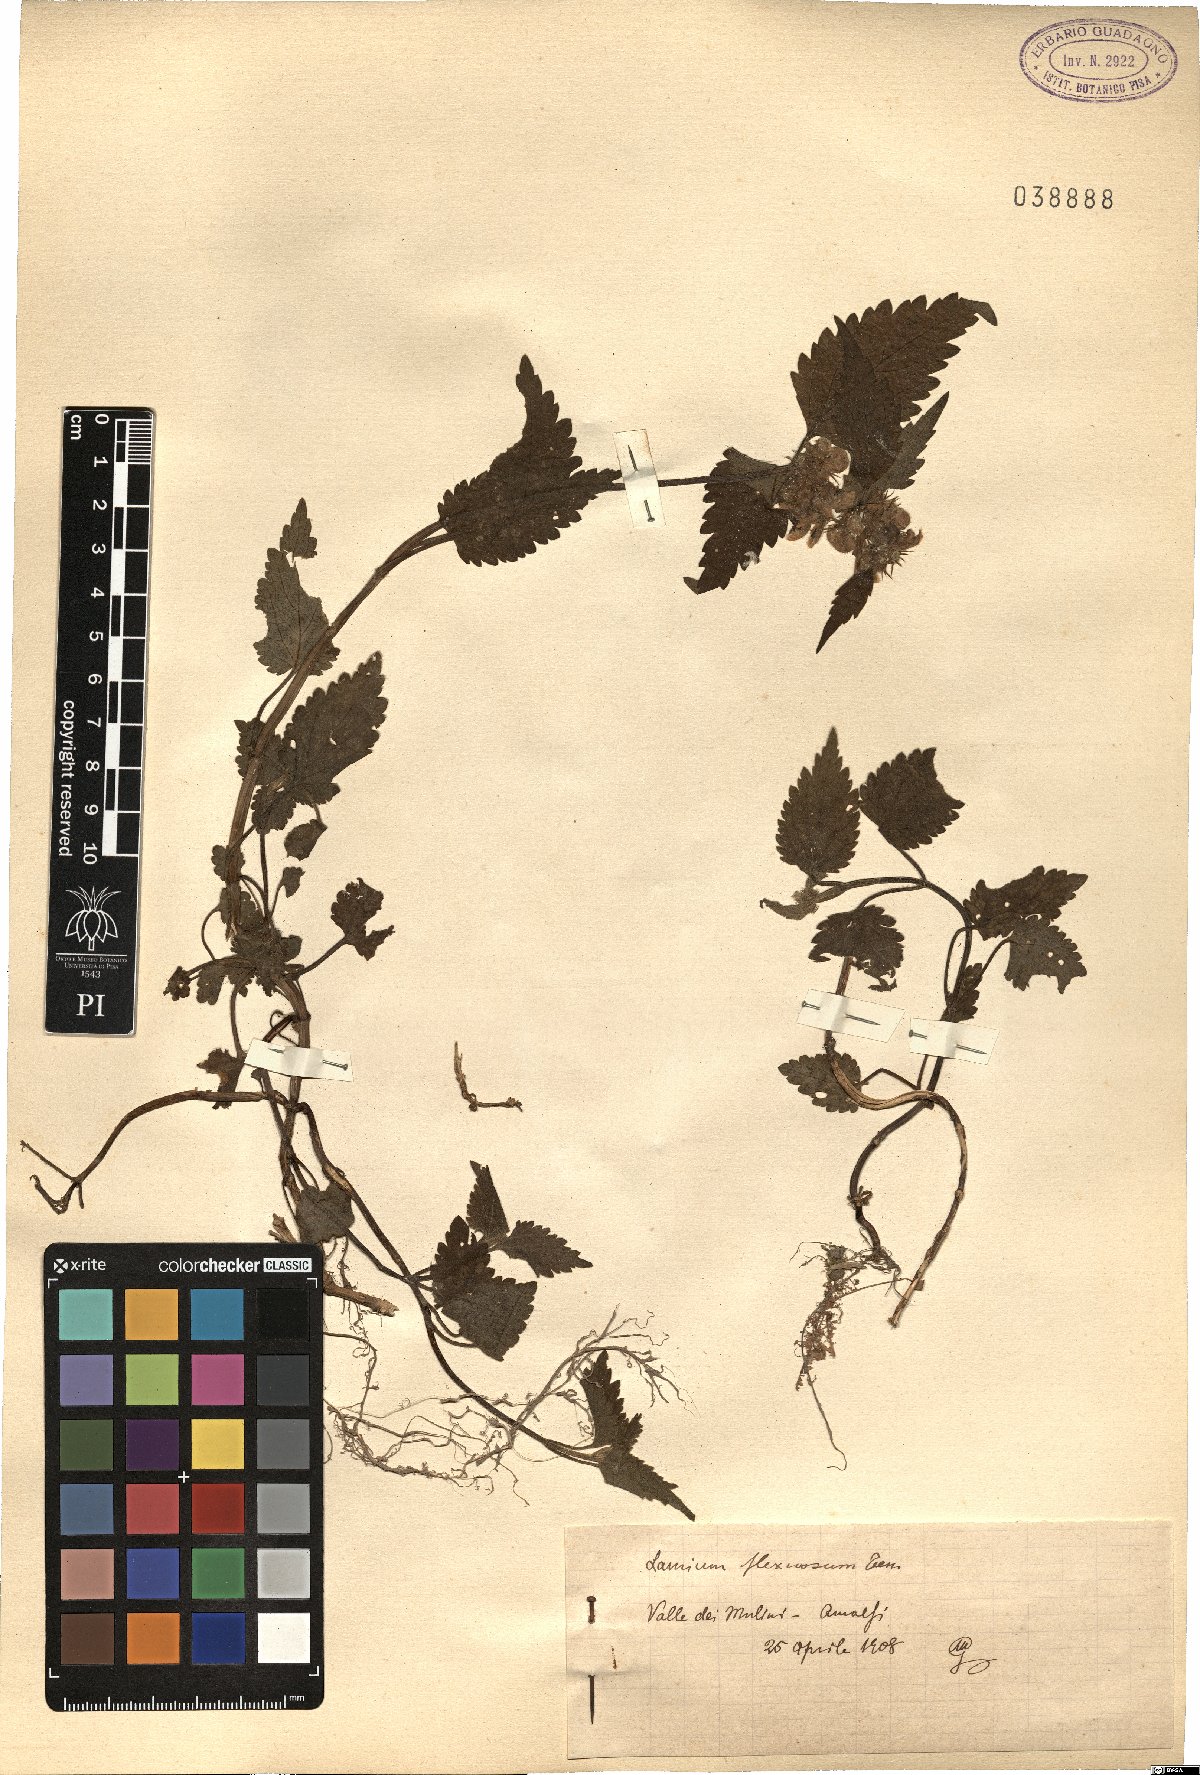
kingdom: Plantae
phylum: Tracheophyta
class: Magnoliopsida
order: Lamiales
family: Lamiaceae
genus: Lamium
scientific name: Lamium flexuosum
